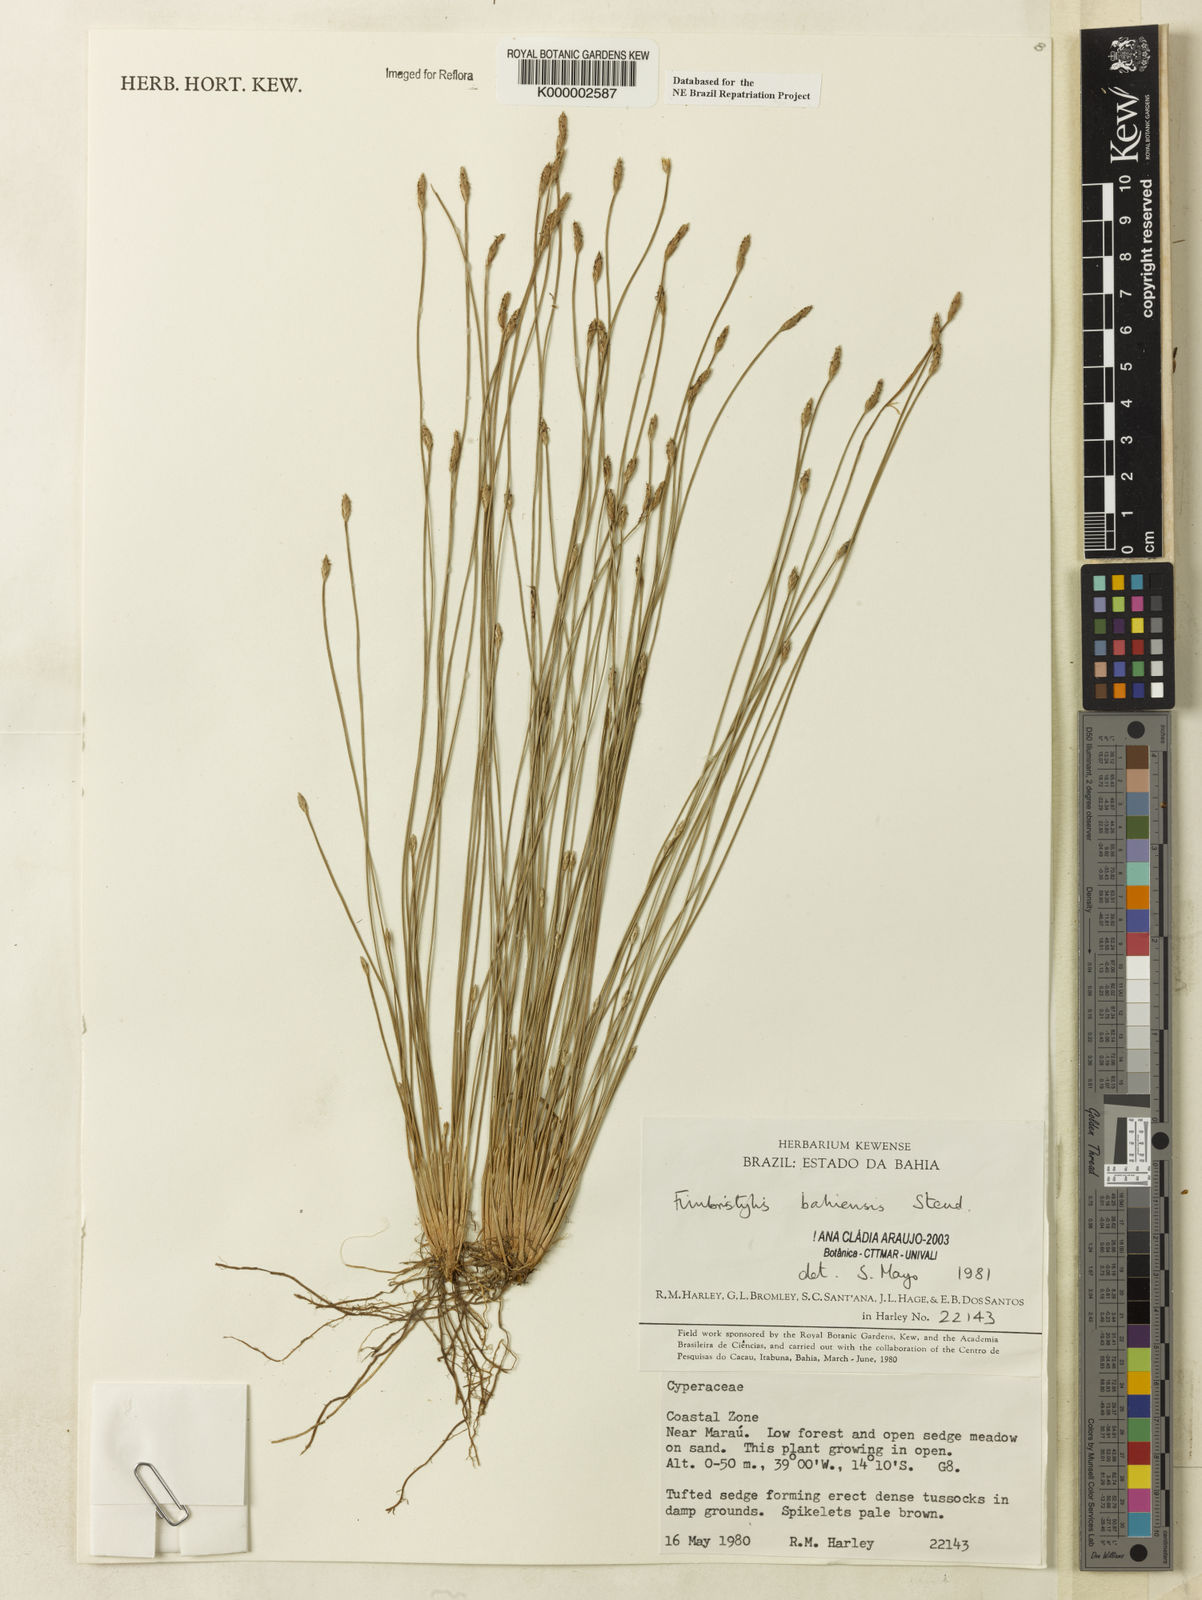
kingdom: Plantae
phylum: Tracheophyta
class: Liliopsida
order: Poales
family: Cyperaceae
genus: Fimbristylis
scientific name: Fimbristylis bahiensis
